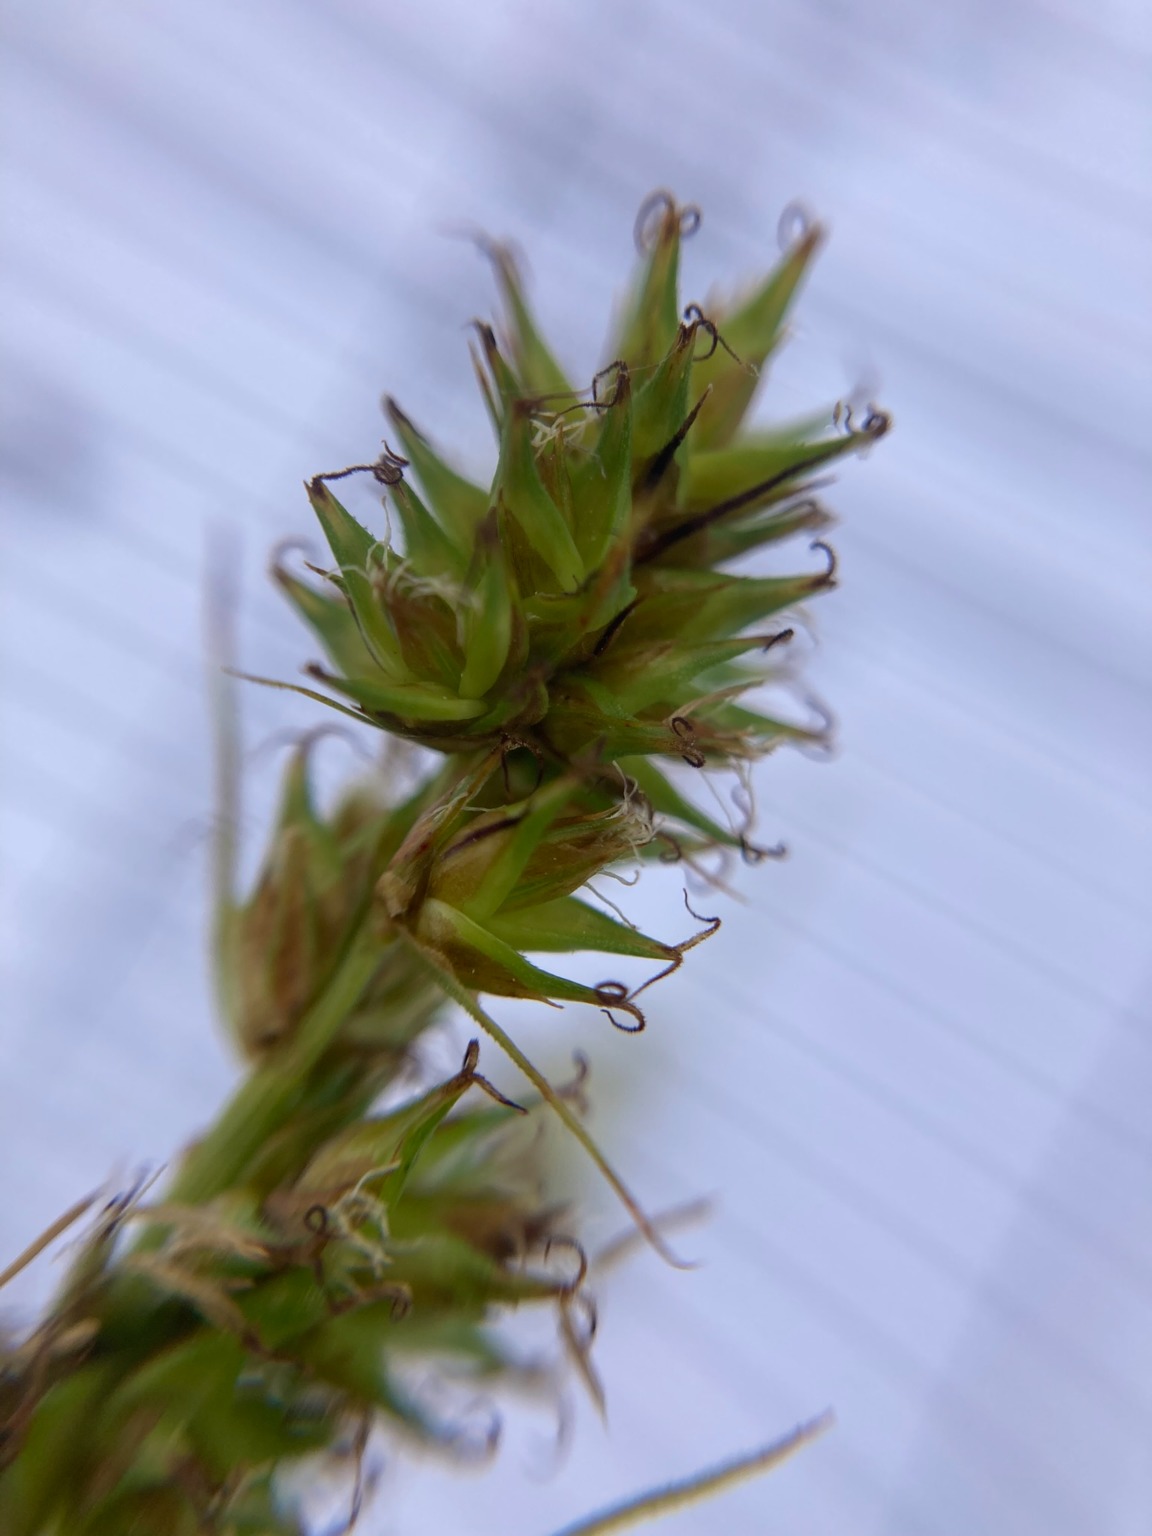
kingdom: Plantae
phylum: Tracheophyta
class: Liliopsida
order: Poales
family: Cyperaceae
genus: Carex
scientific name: Carex otrubae
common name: Sylt-star
